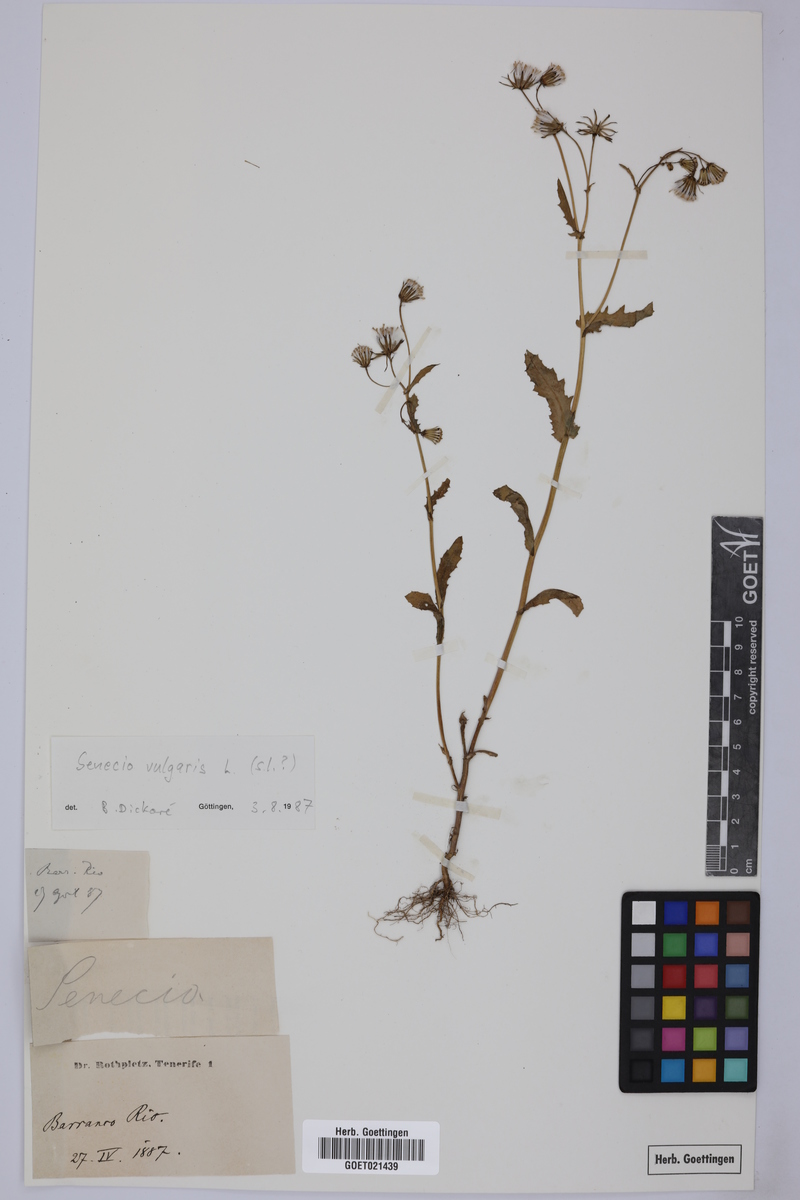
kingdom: Plantae
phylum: Tracheophyta
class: Magnoliopsida
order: Asterales
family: Asteraceae
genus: Senecio
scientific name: Senecio vulgaris
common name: Old-man-in-the-spring
